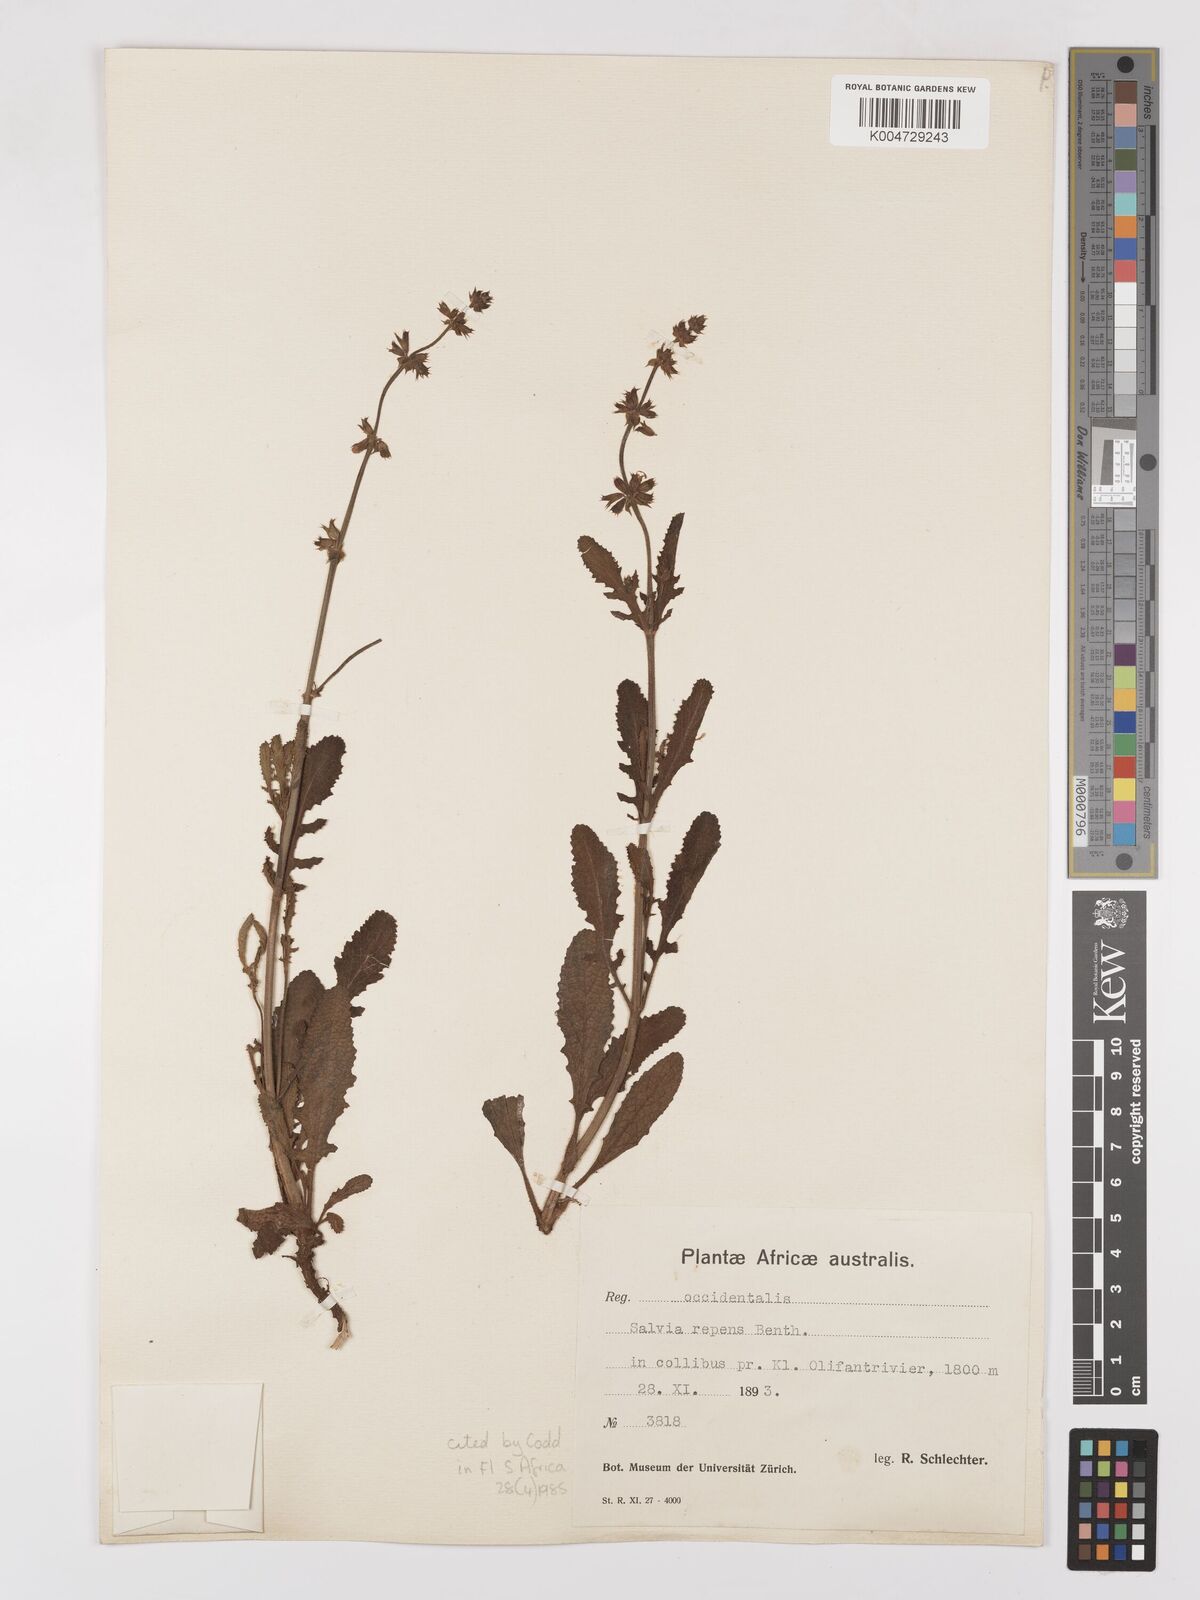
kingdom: Plantae
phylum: Tracheophyta
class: Magnoliopsida
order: Lamiales
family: Lamiaceae
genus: Salvia
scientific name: Salvia repens
